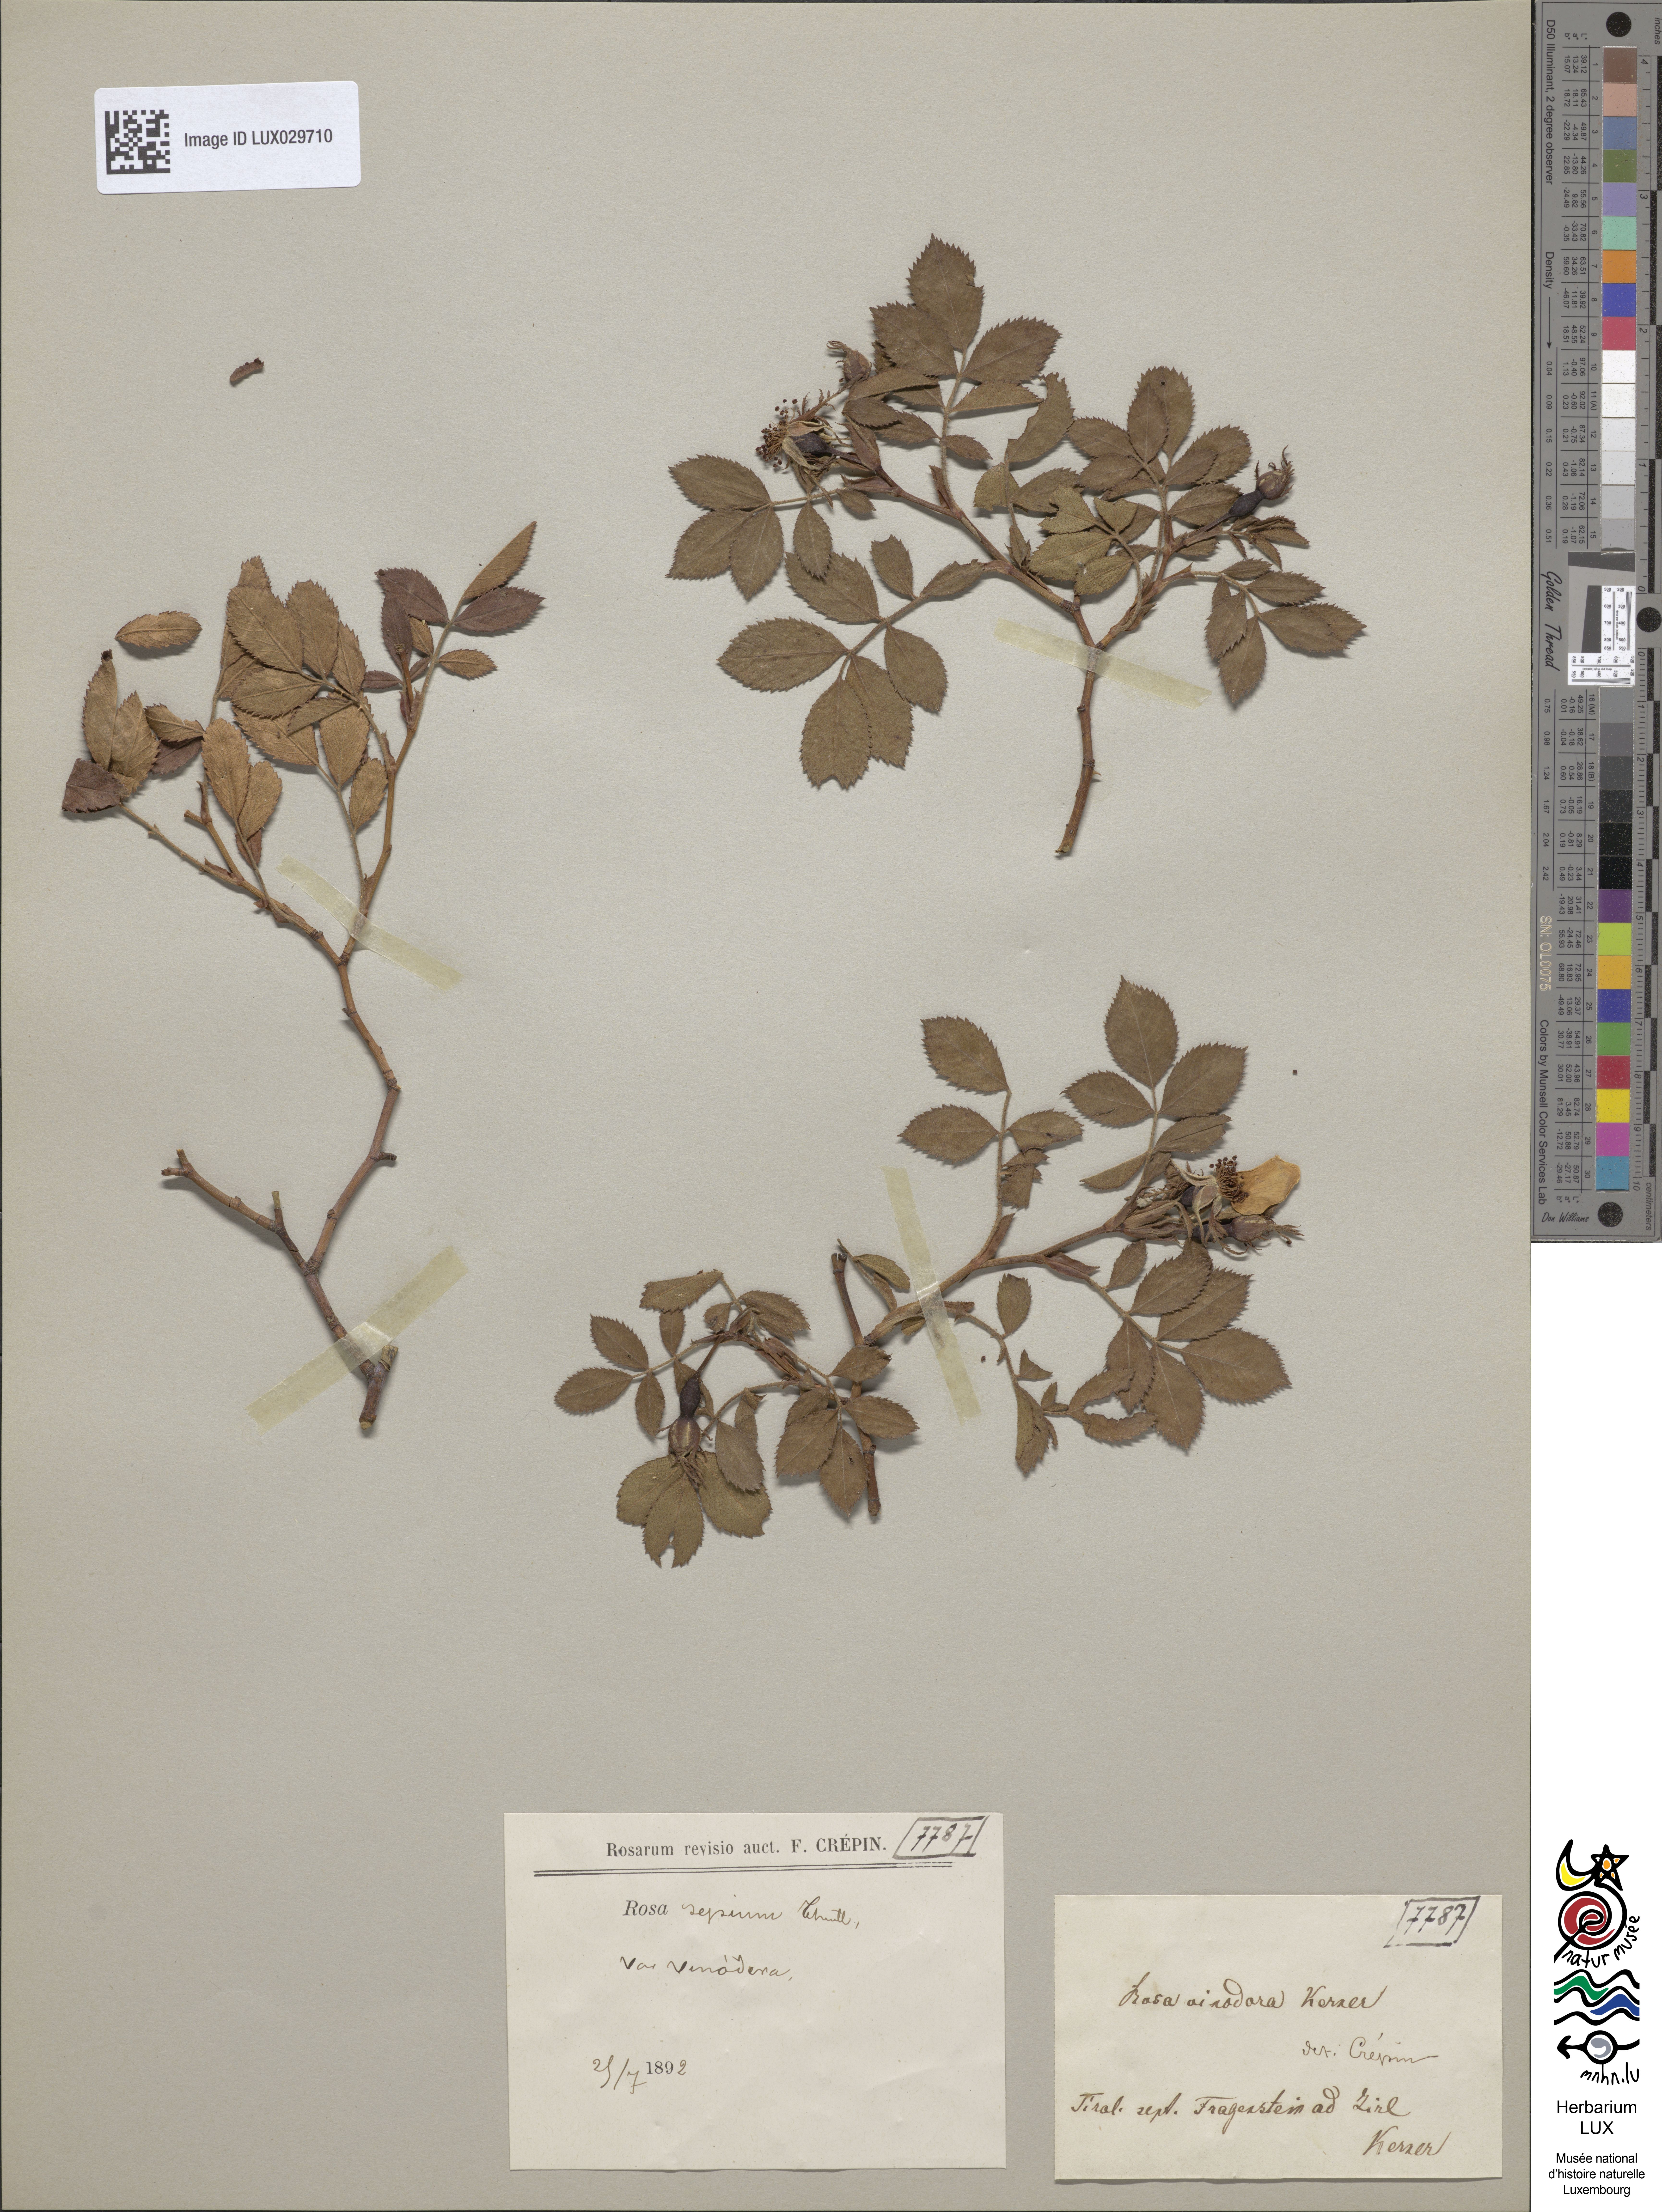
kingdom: Plantae
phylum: Tracheophyta
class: Magnoliopsida
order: Rosales
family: Rosaceae
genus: Rosa
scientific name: Rosa agrestis
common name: Fieldbriar
